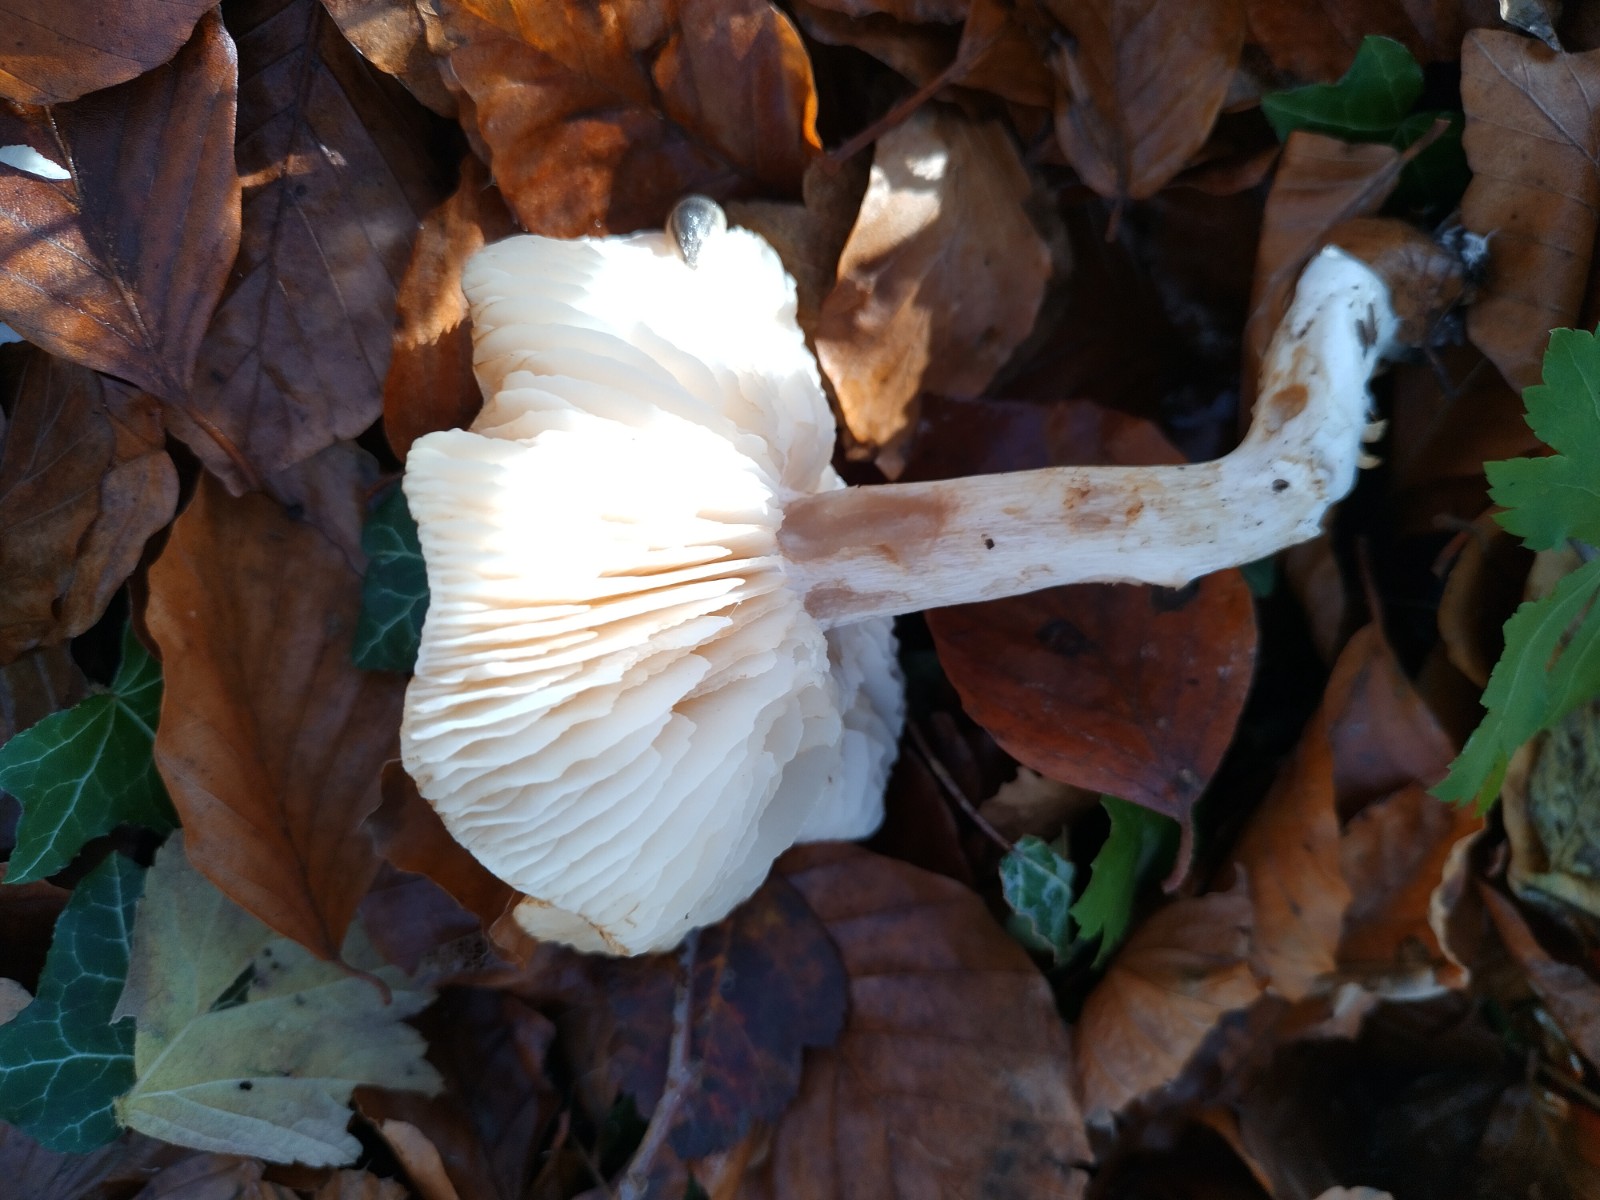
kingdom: Fungi
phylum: Basidiomycota
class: Agaricomycetes
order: Agaricales
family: Tricholomataceae
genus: Tricholoma
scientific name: Tricholoma lascivum
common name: stinkende ridderhat
